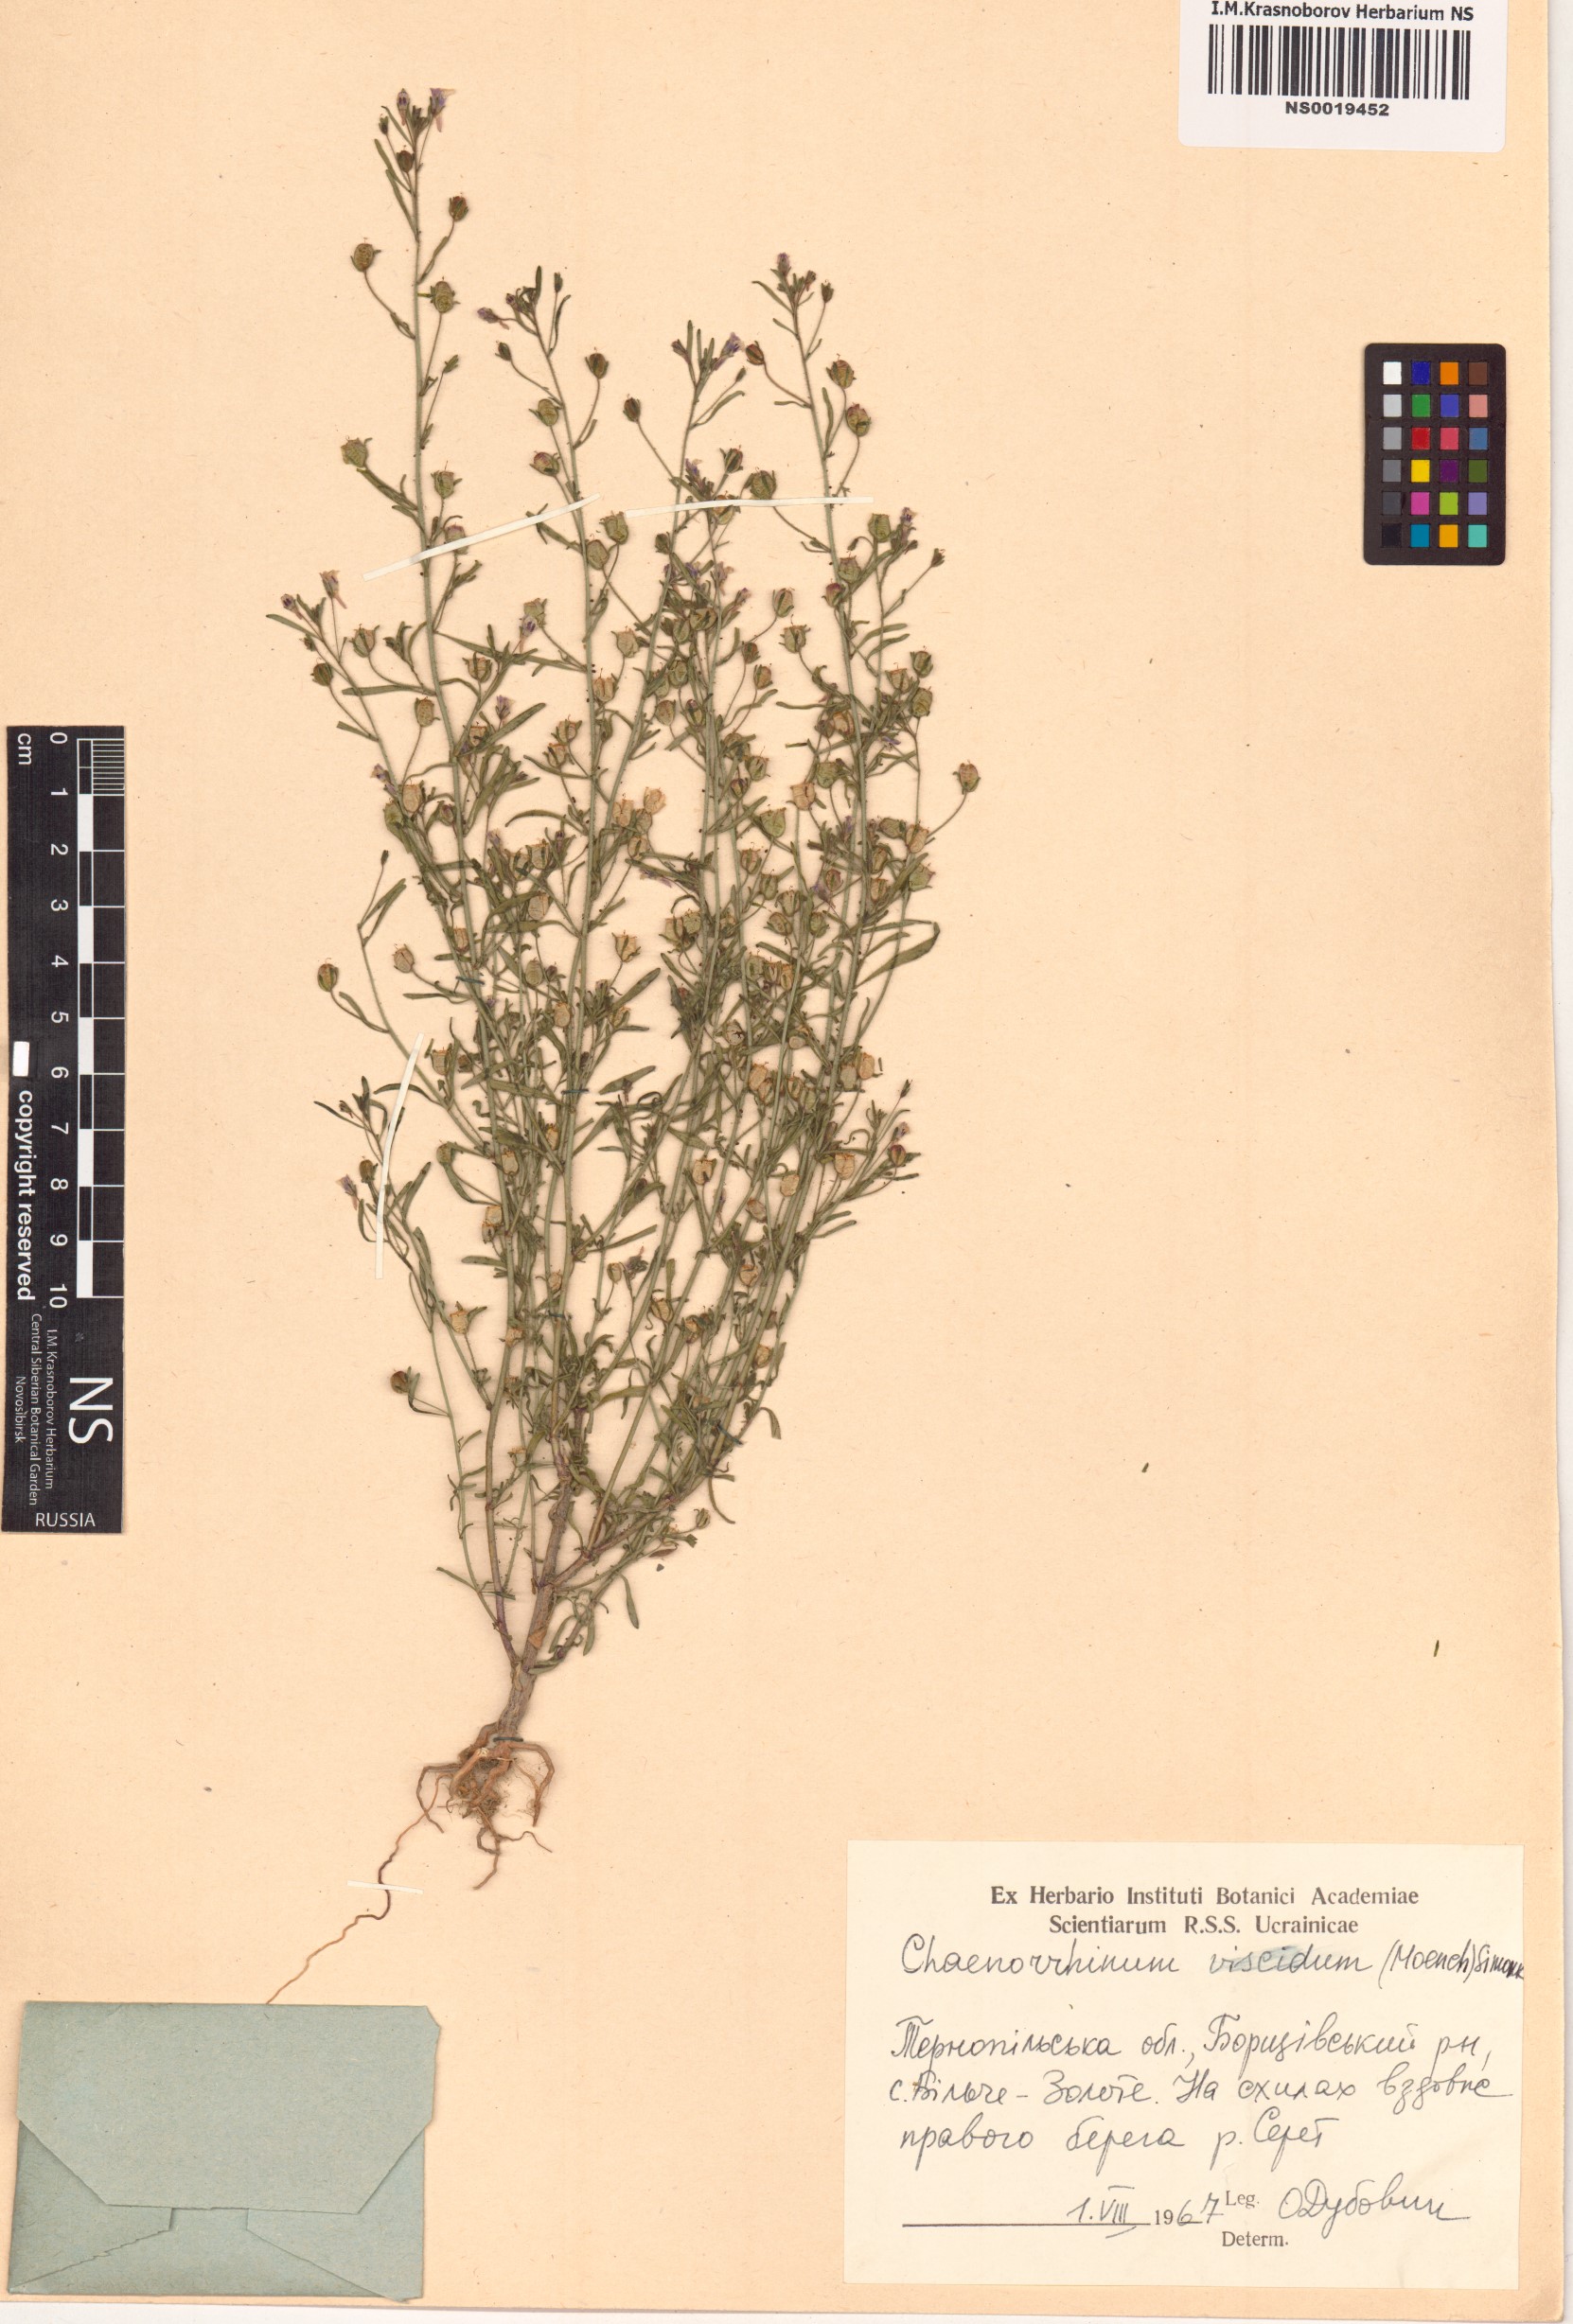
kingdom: Plantae
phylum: Tracheophyta
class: Magnoliopsida
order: Lamiales
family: Plantaginaceae
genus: Chaenorhinum
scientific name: Chaenorhinum minus
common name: Dwarf snapdragon
